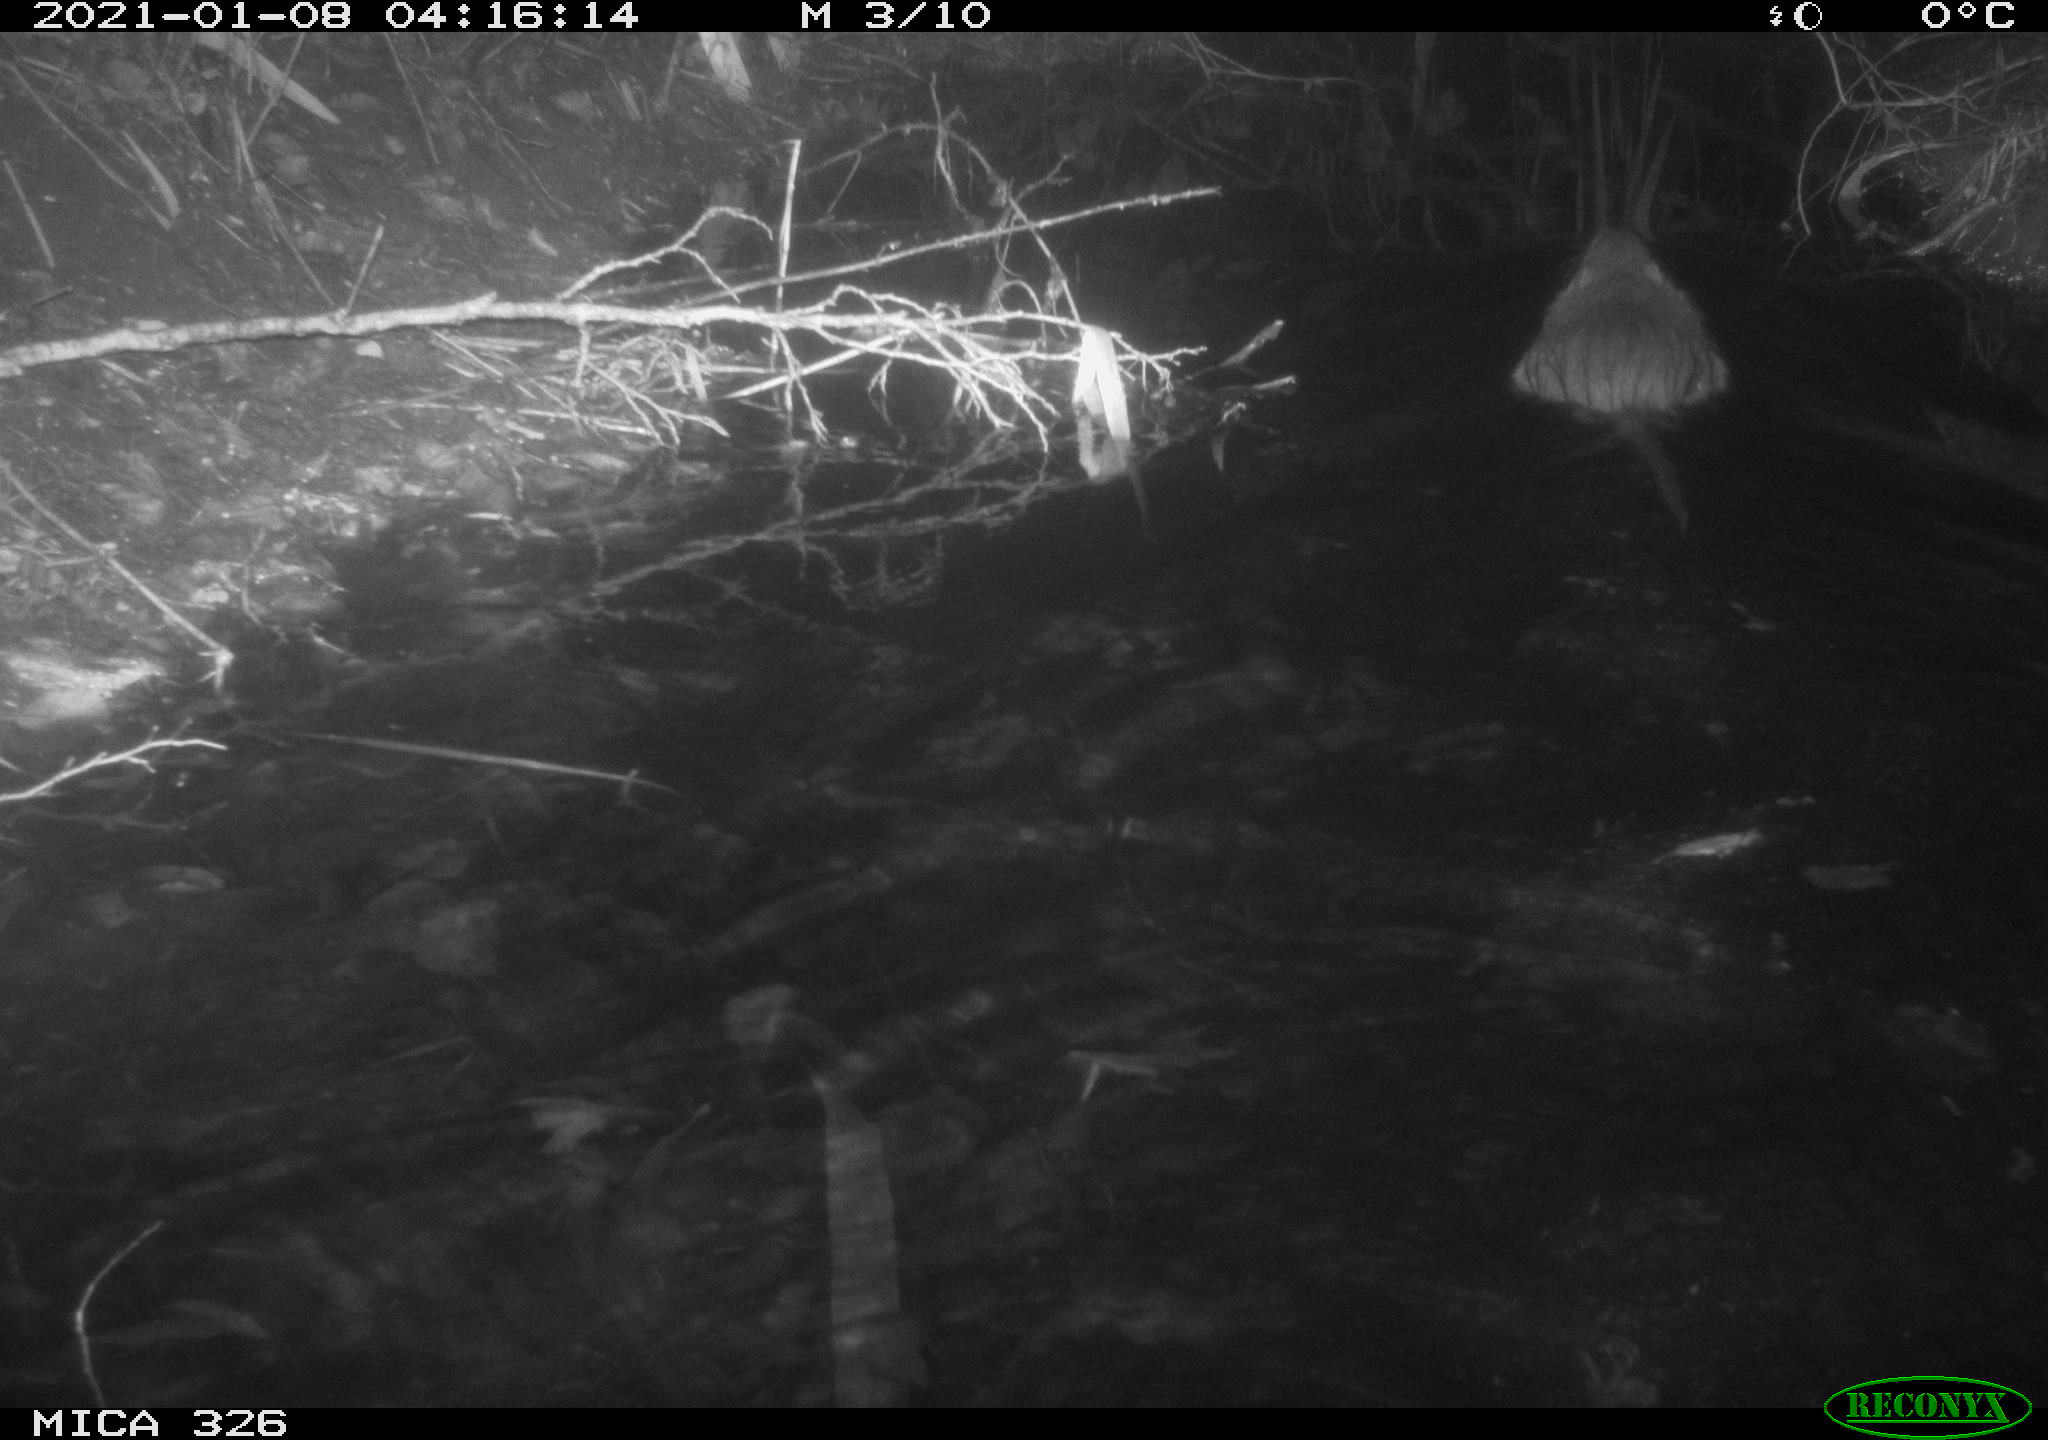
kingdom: Animalia
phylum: Chordata
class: Mammalia
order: Rodentia
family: Myocastoridae
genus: Myocastor
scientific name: Myocastor coypus
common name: Coypu
